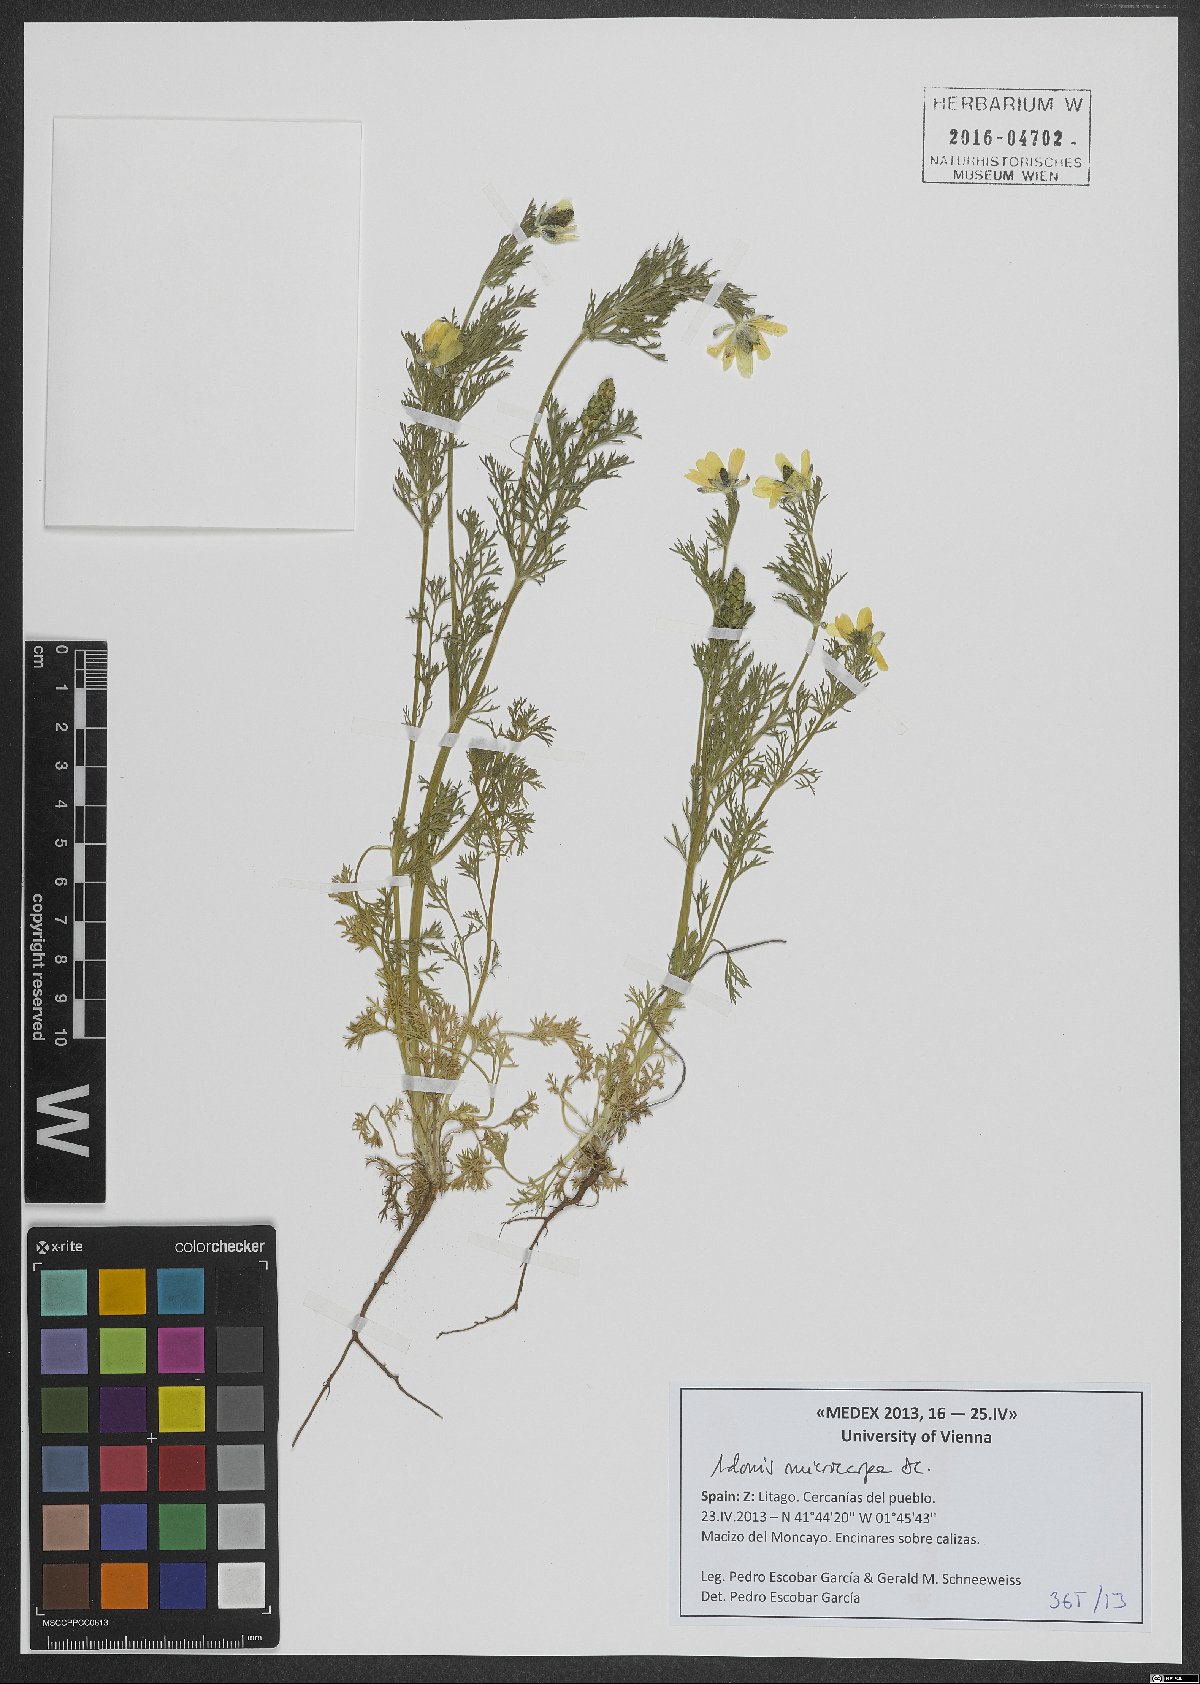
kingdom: Plantae
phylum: Tracheophyta
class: Magnoliopsida
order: Ranunculales
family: Ranunculaceae
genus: Adonis
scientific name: Adonis microcarpa
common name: Pheasant's-eye
